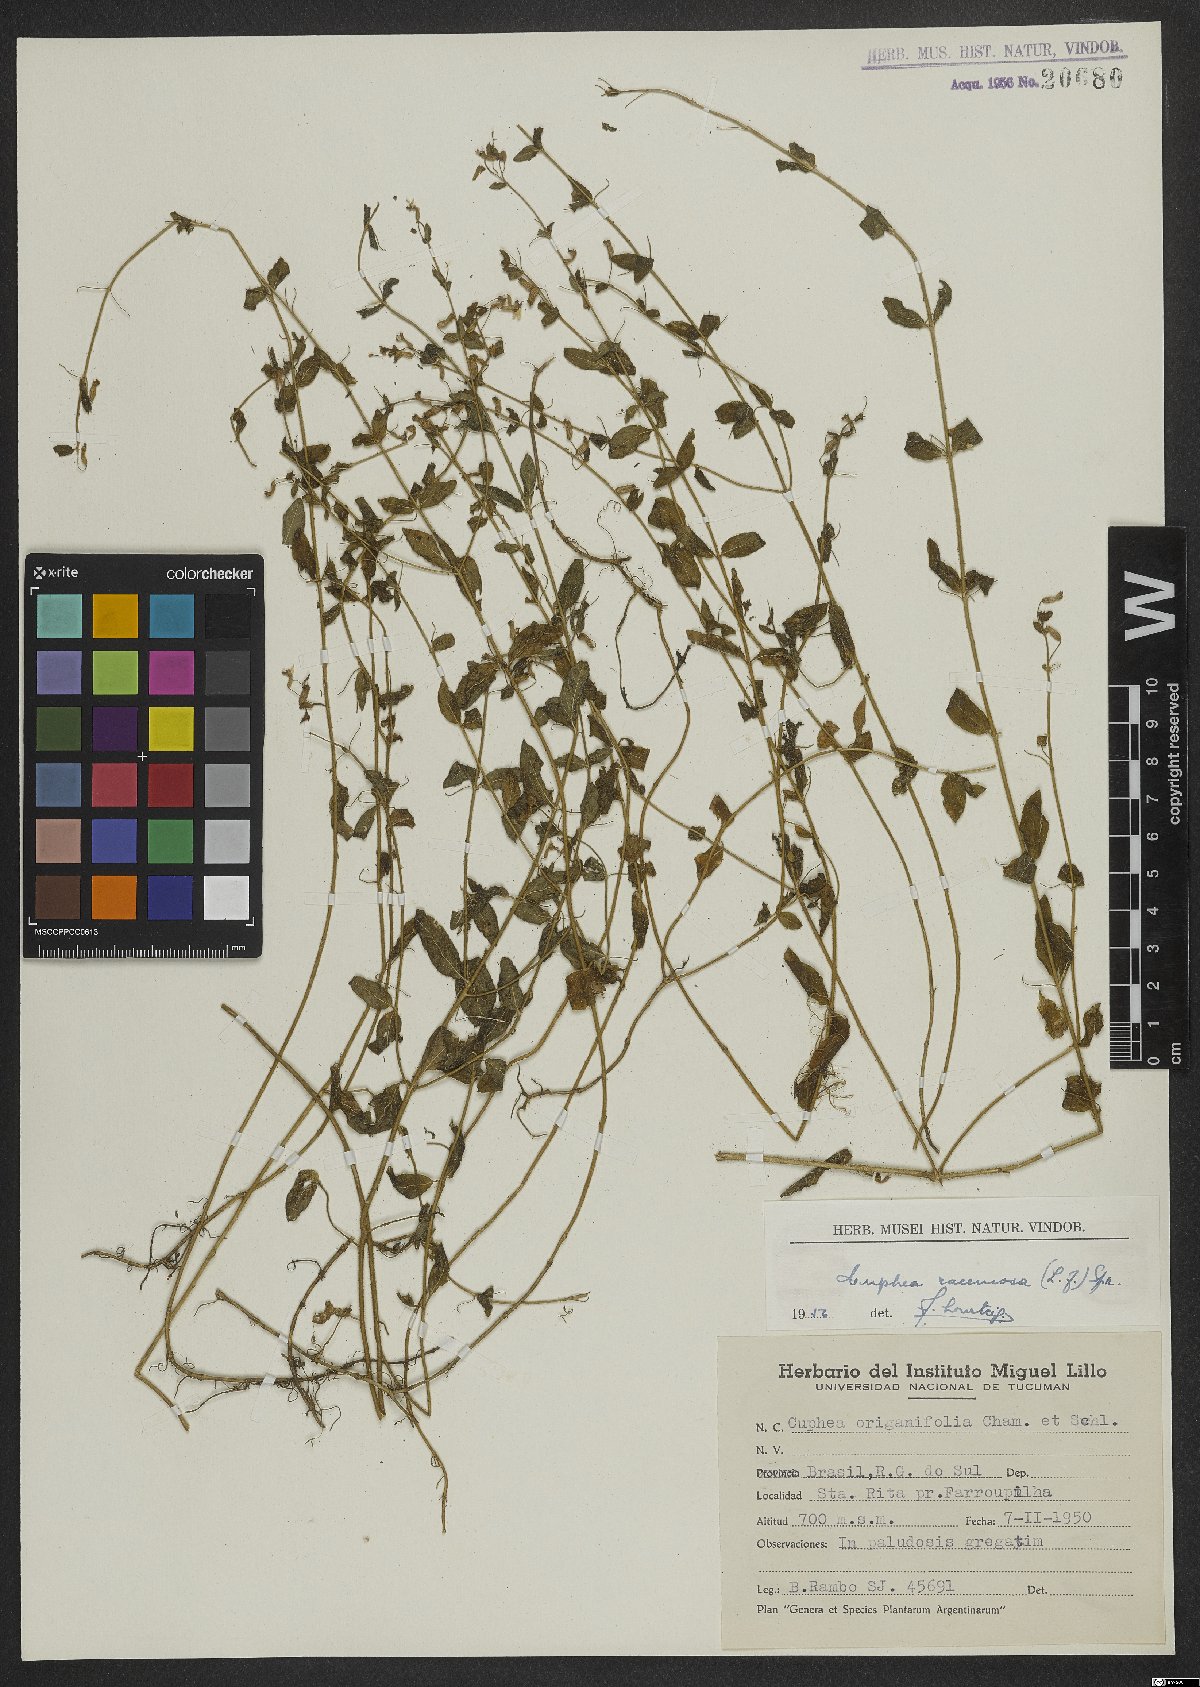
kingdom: Plantae
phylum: Tracheophyta
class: Magnoliopsida
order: Myrtales
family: Lythraceae
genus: Cuphea
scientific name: Cuphea racemosa
